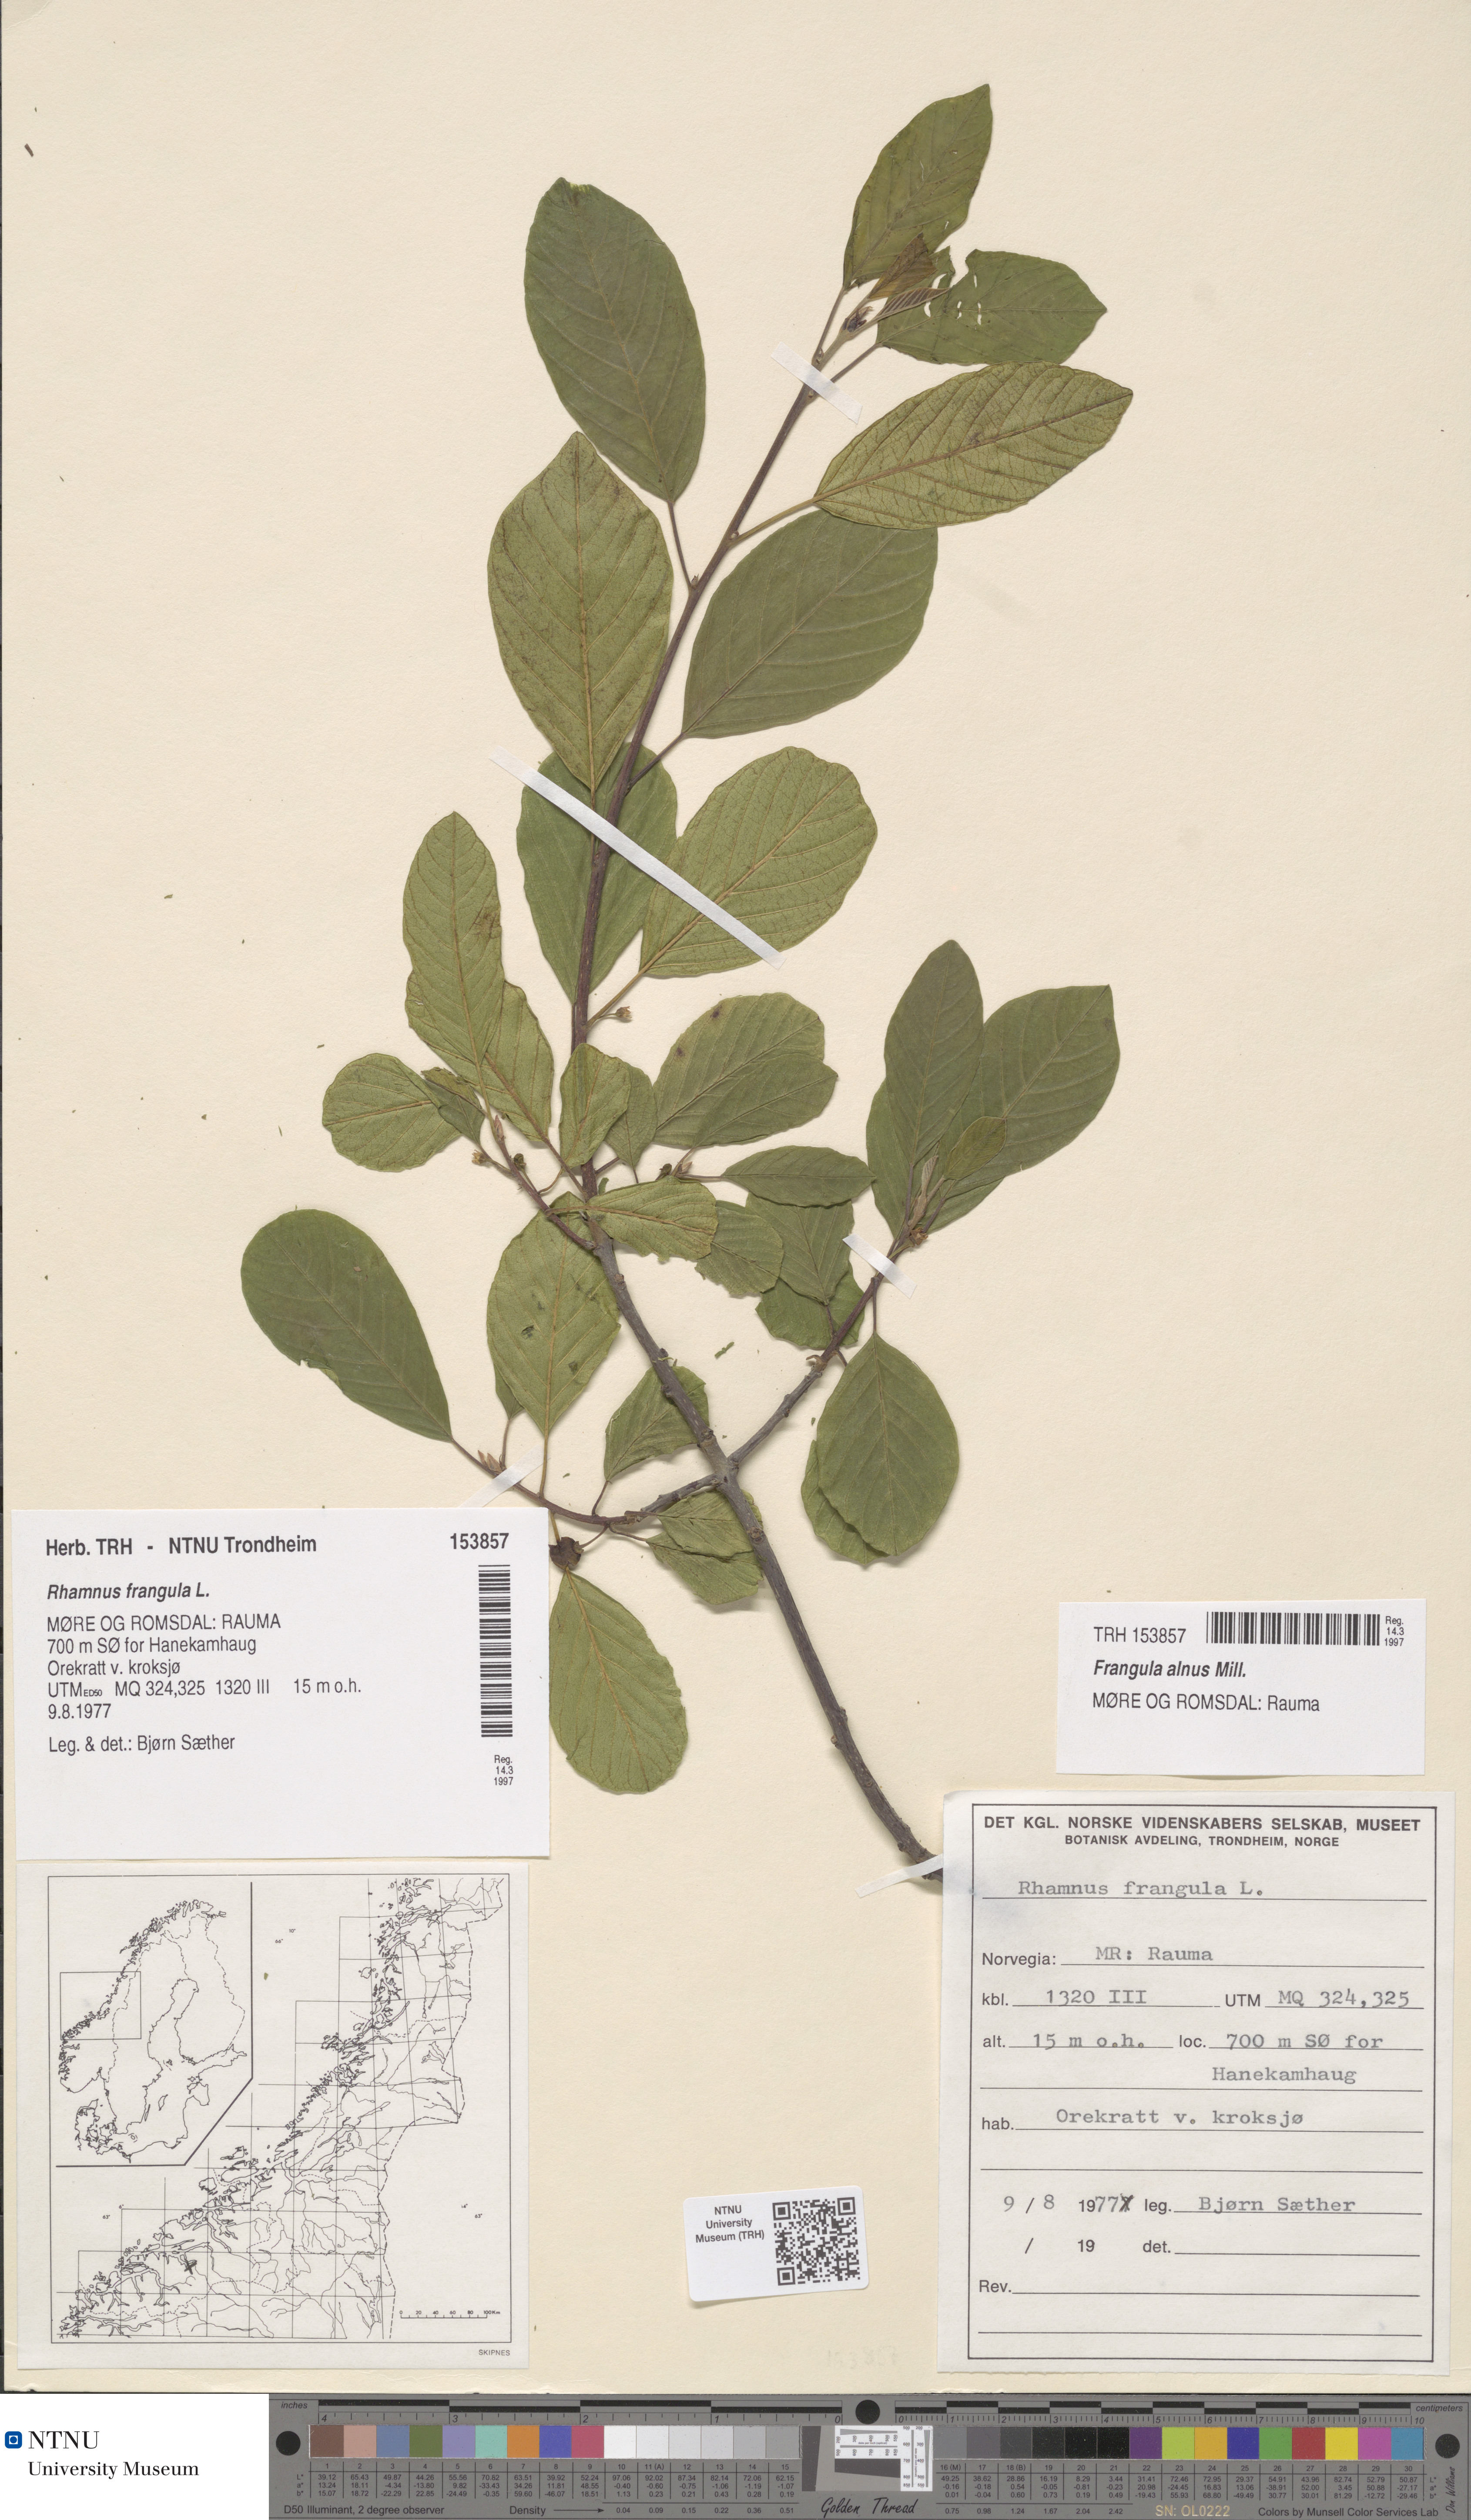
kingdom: Plantae
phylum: Tracheophyta
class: Magnoliopsida
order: Rosales
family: Rhamnaceae
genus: Frangula
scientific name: Frangula alnus
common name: Alder buckthorn
